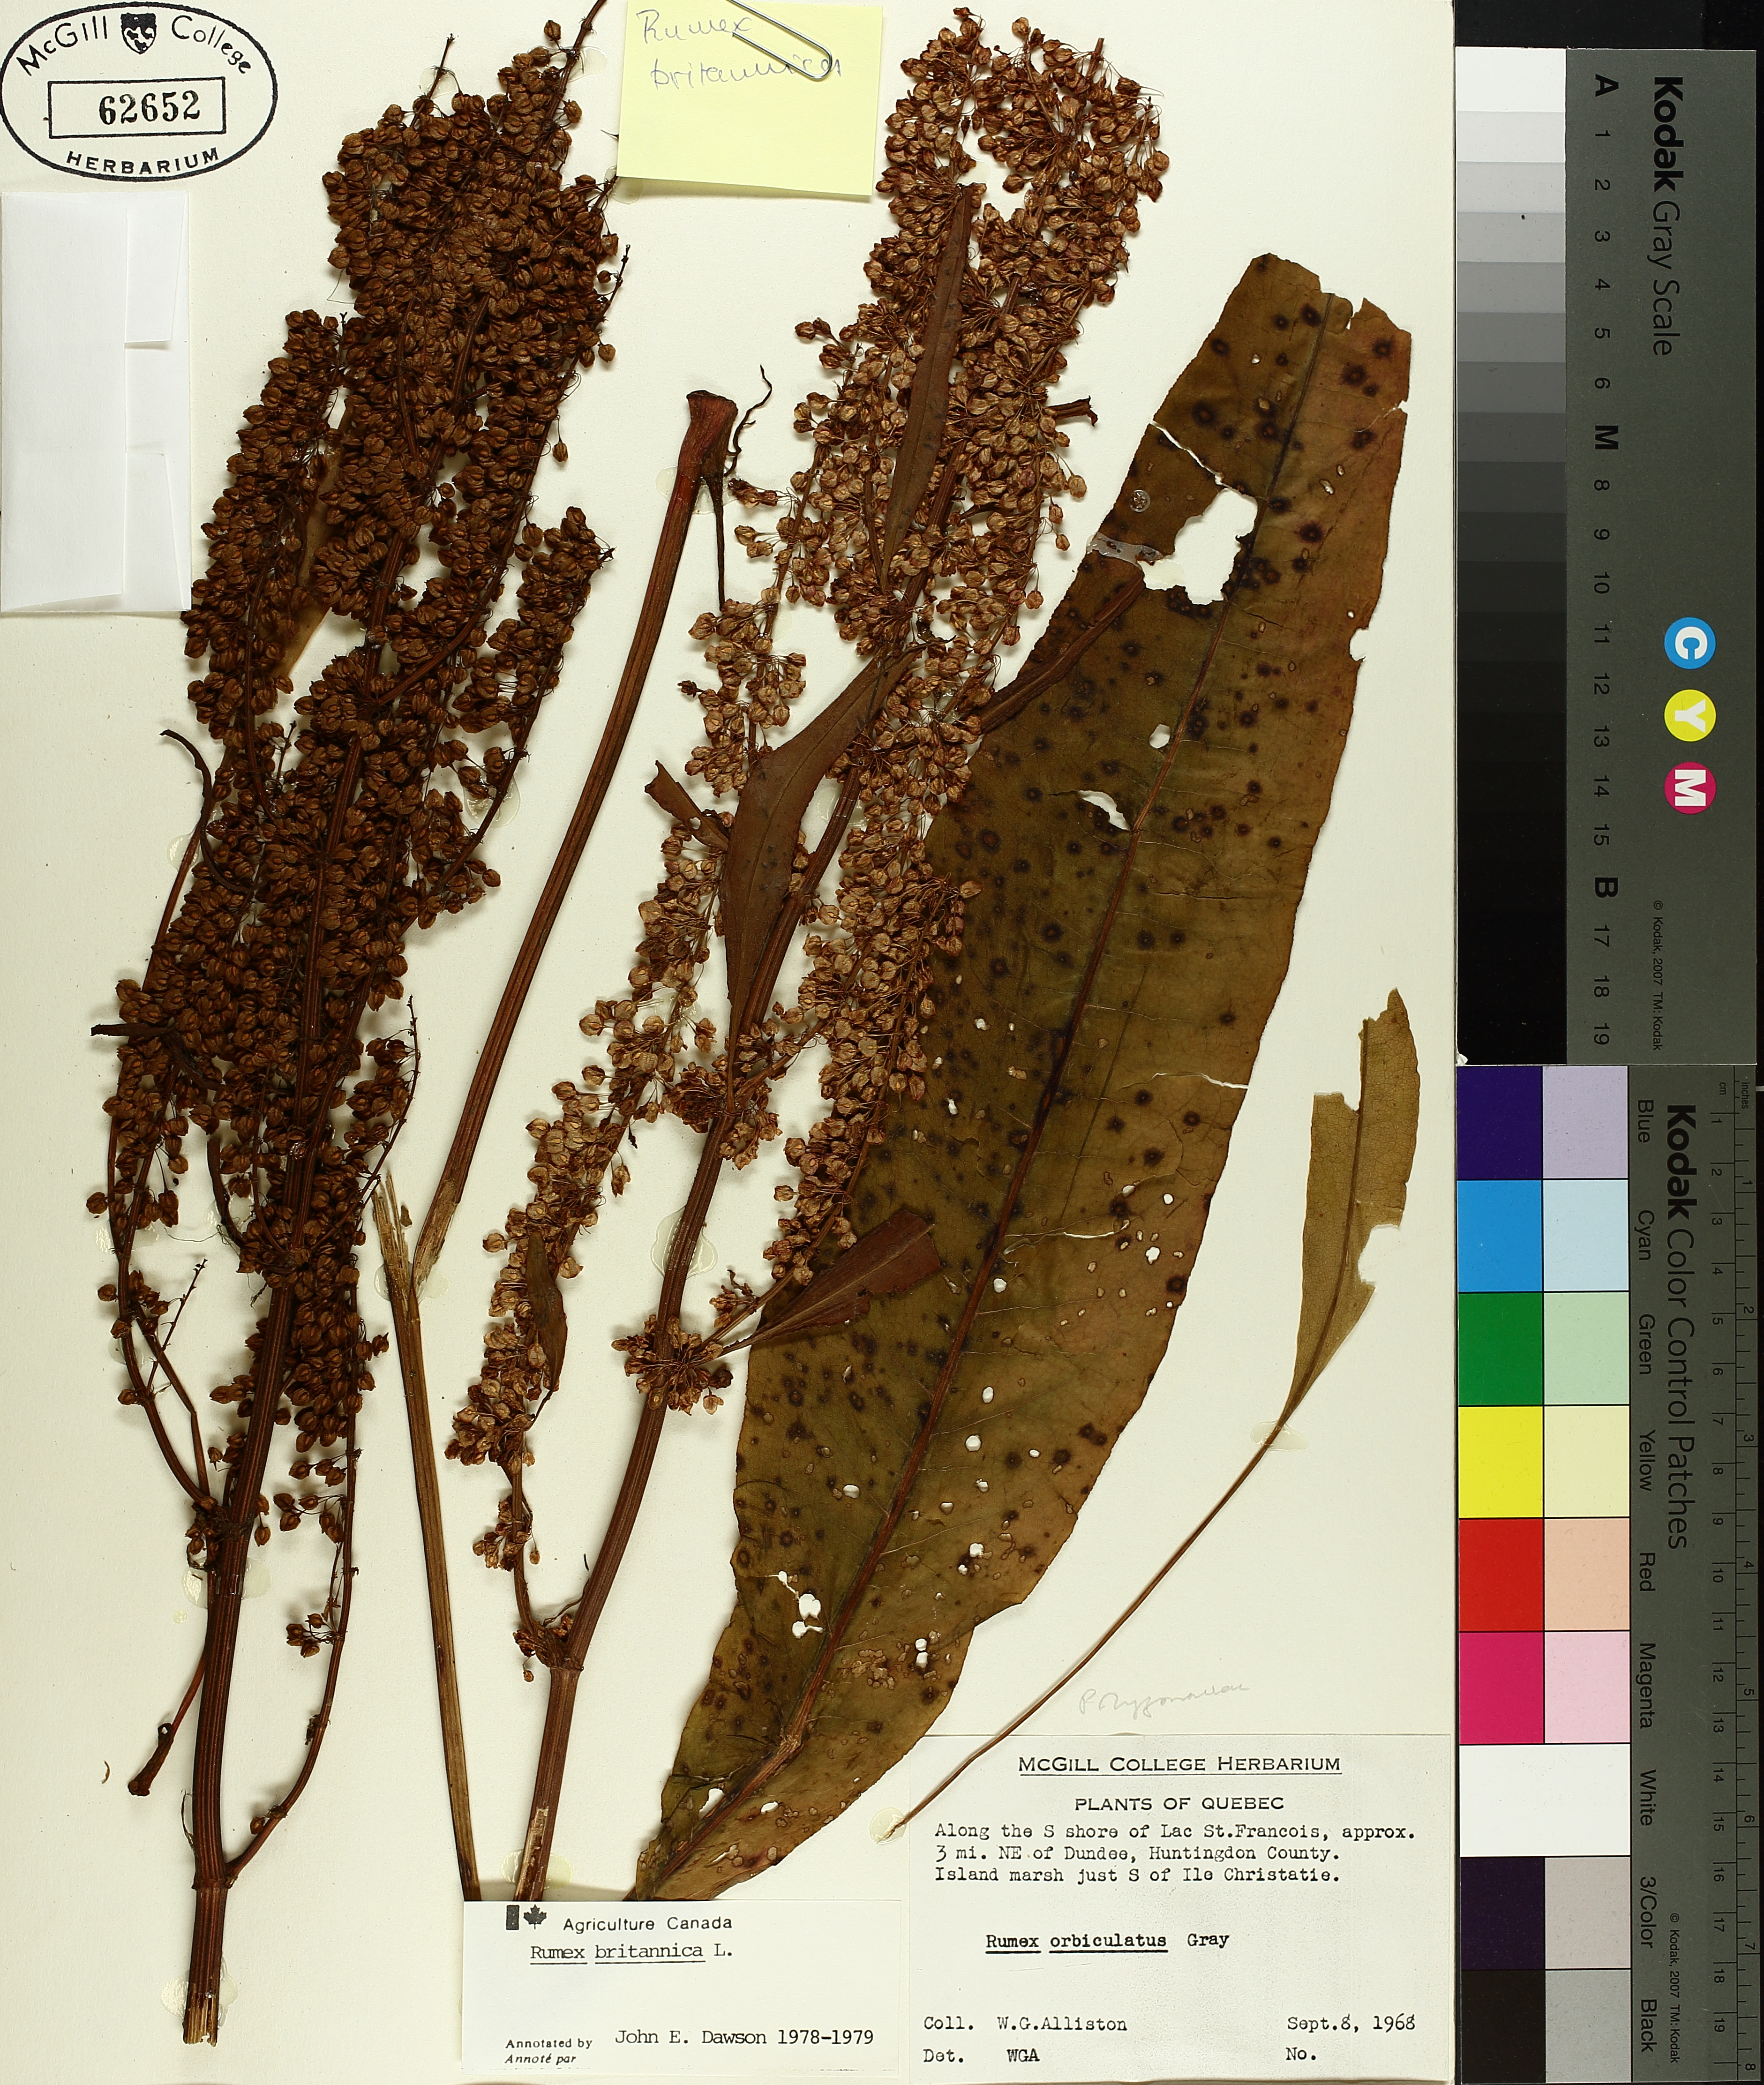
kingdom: Plantae
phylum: Tracheophyta
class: Magnoliopsida
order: Caryophyllales
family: Polygonaceae
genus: Rumex
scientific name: Rumex britannica
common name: British dock
